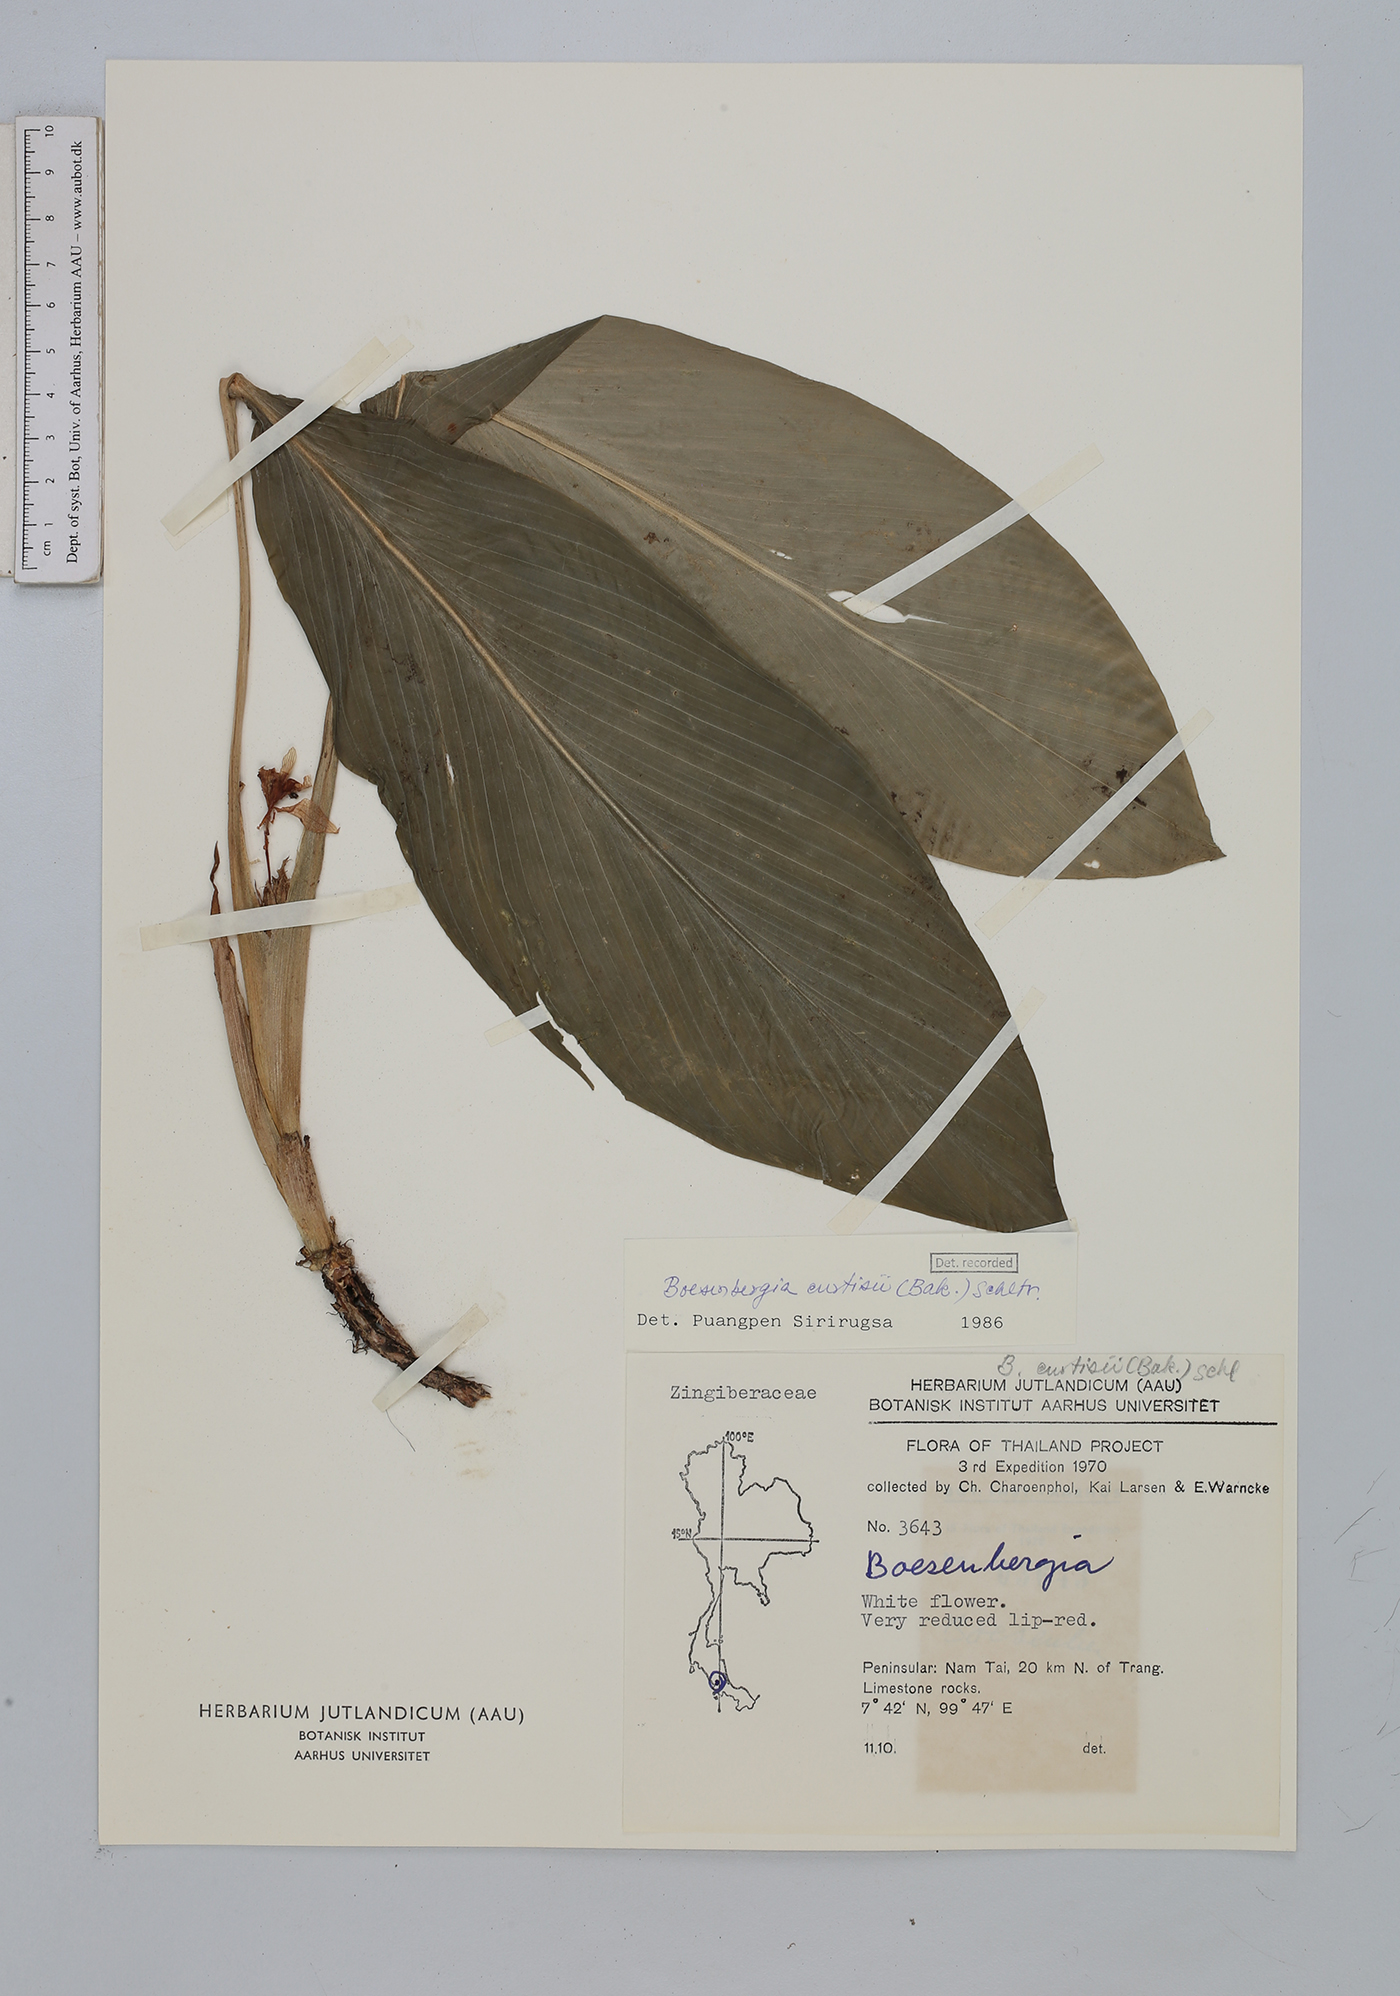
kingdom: Plantae
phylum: Tracheophyta
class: Liliopsida
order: Zingiberales
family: Zingiberaceae
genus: Boesenbergia
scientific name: Boesenbergia curtisii
